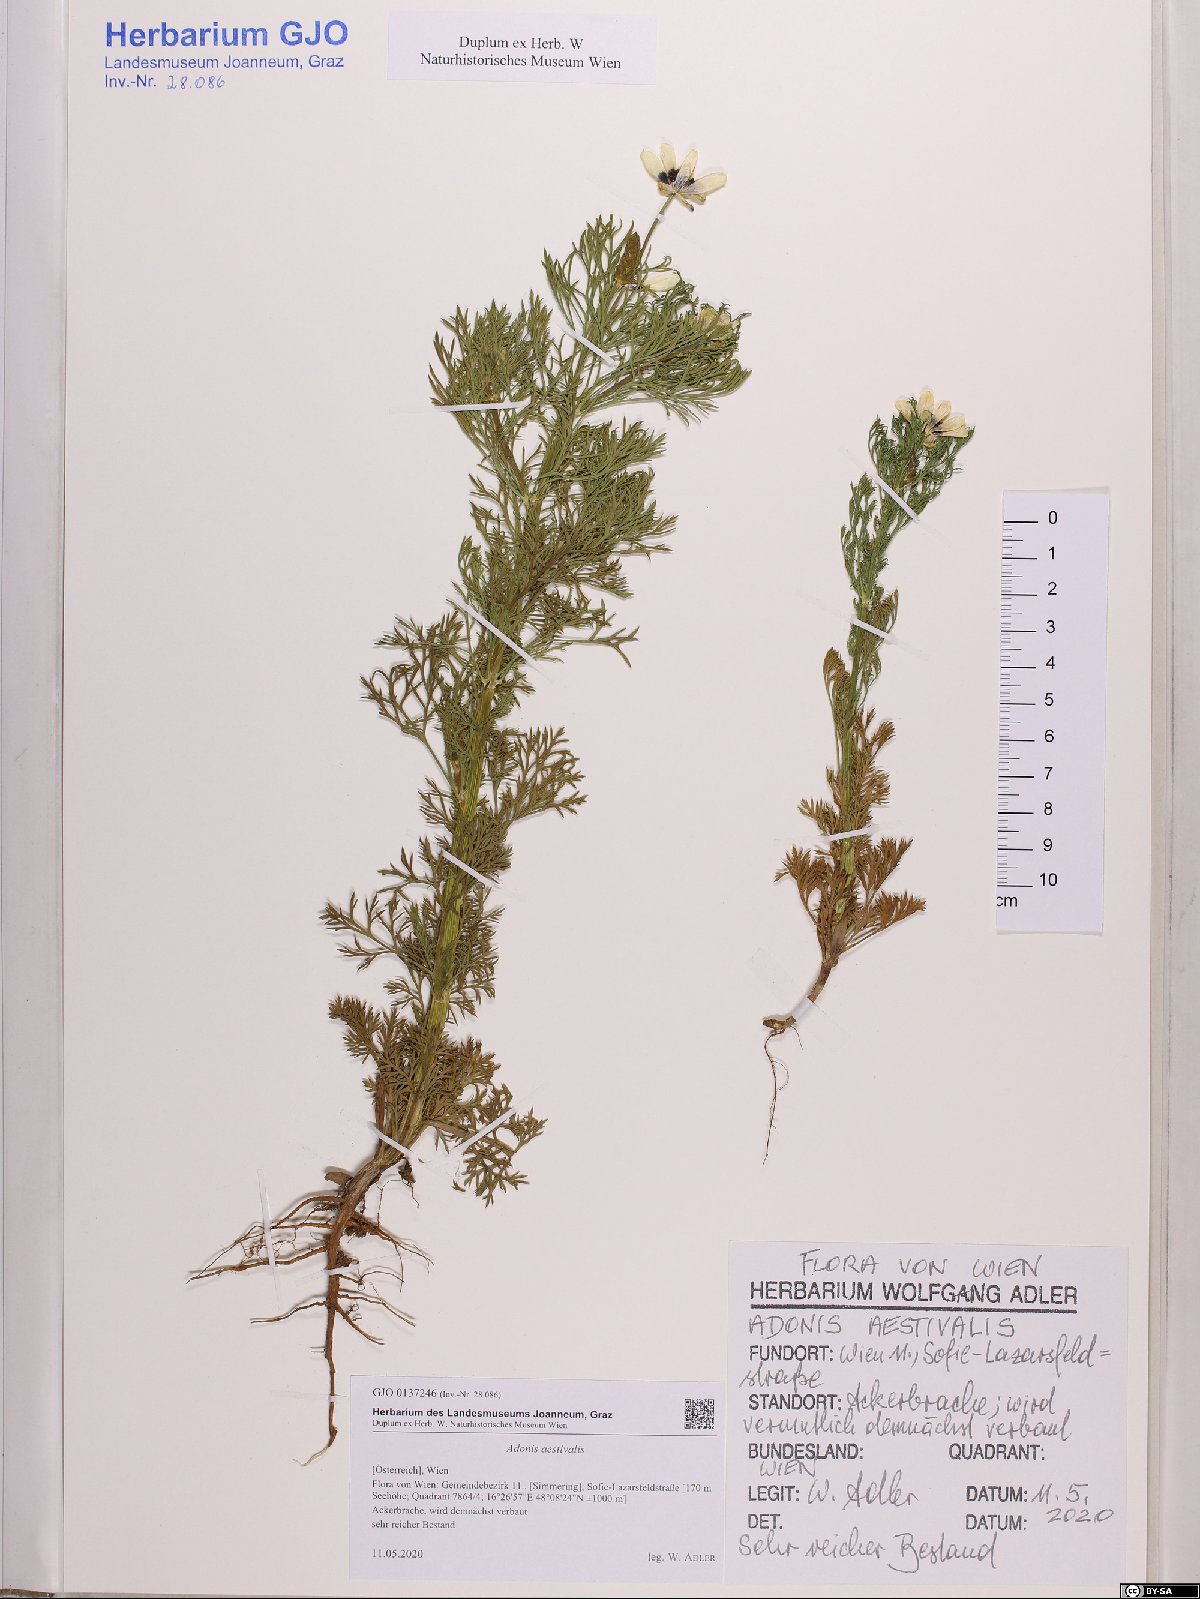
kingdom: Plantae
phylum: Tracheophyta
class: Magnoliopsida
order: Ranunculales
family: Ranunculaceae
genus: Adonis
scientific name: Adonis aestivalis
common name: Summer pheasant's-eye
